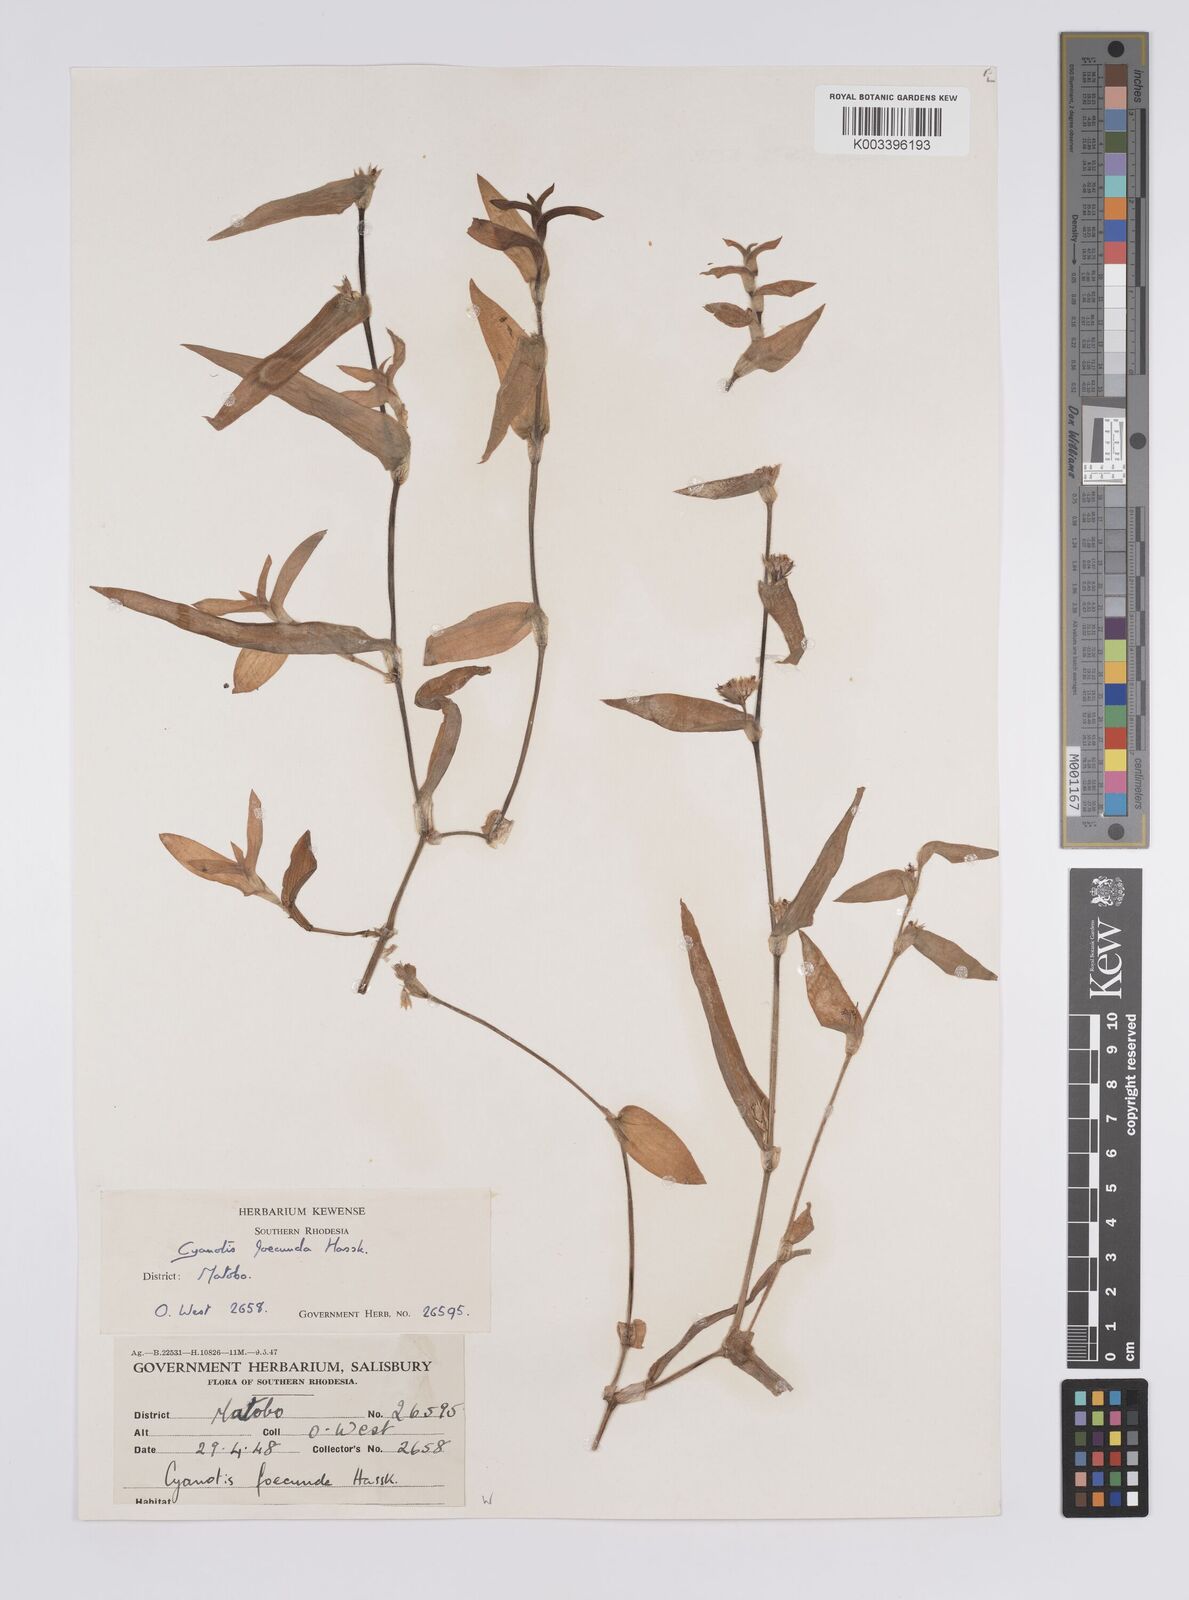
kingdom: Plantae
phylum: Tracheophyta
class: Liliopsida
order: Commelinales
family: Commelinaceae
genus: Cyanotis
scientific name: Cyanotis foecunda
